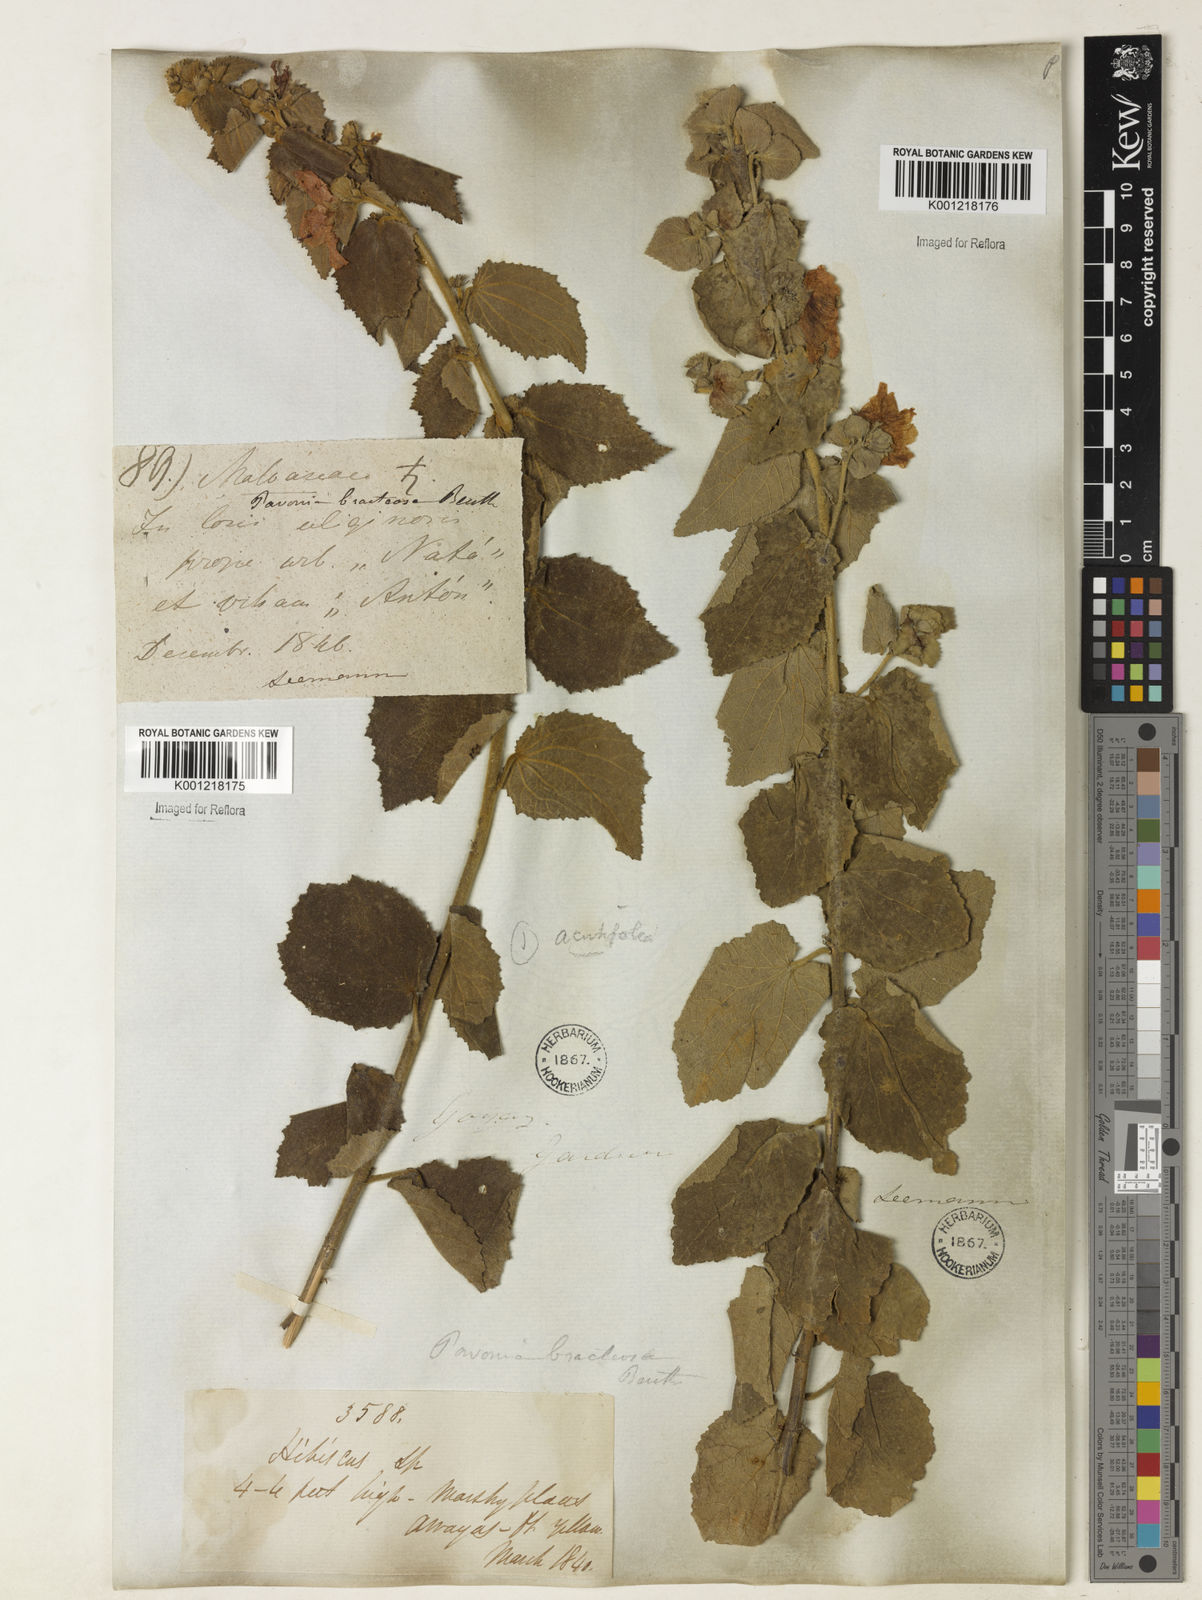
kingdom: Plantae
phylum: Tracheophyta
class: Magnoliopsida
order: Malvales
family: Malvaceae
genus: Peltaea
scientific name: Peltaea
